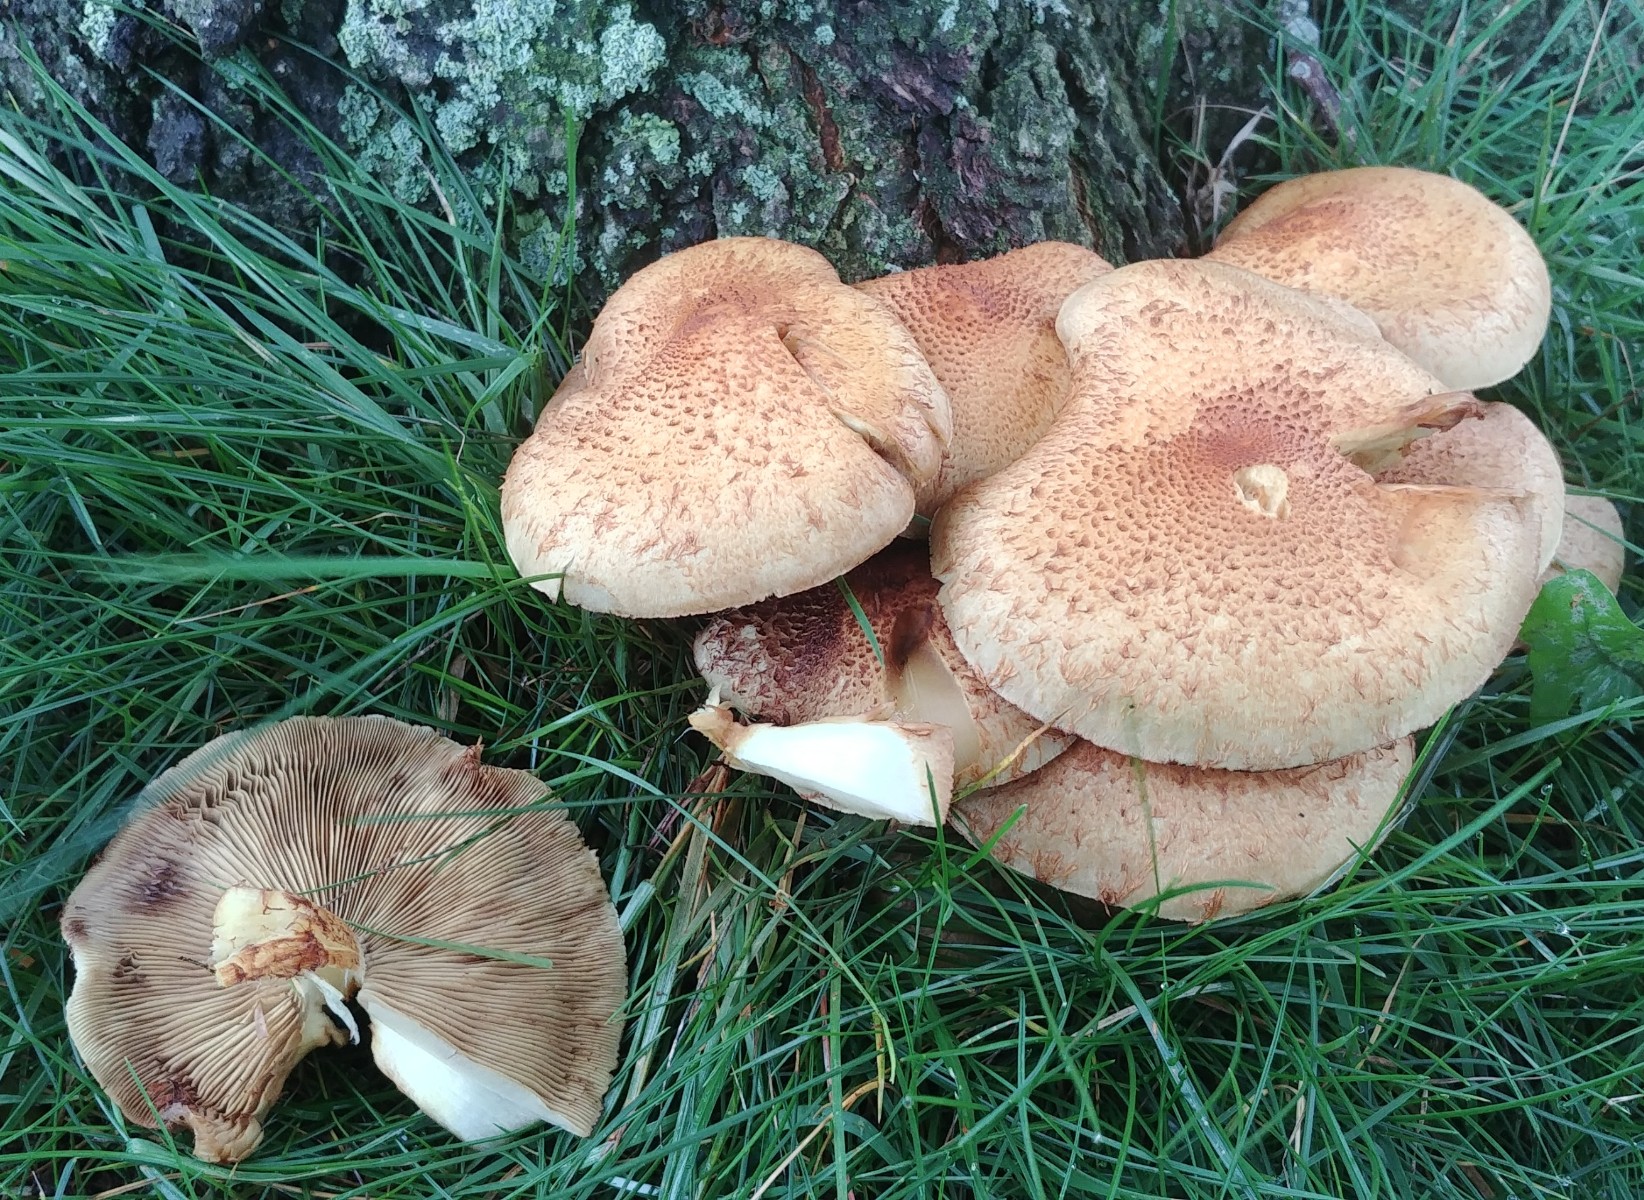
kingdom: Fungi
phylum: Basidiomycota
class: Agaricomycetes
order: Agaricales
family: Strophariaceae
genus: Pholiota
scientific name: Pholiota squarrosa
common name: krumskællet skælhat
